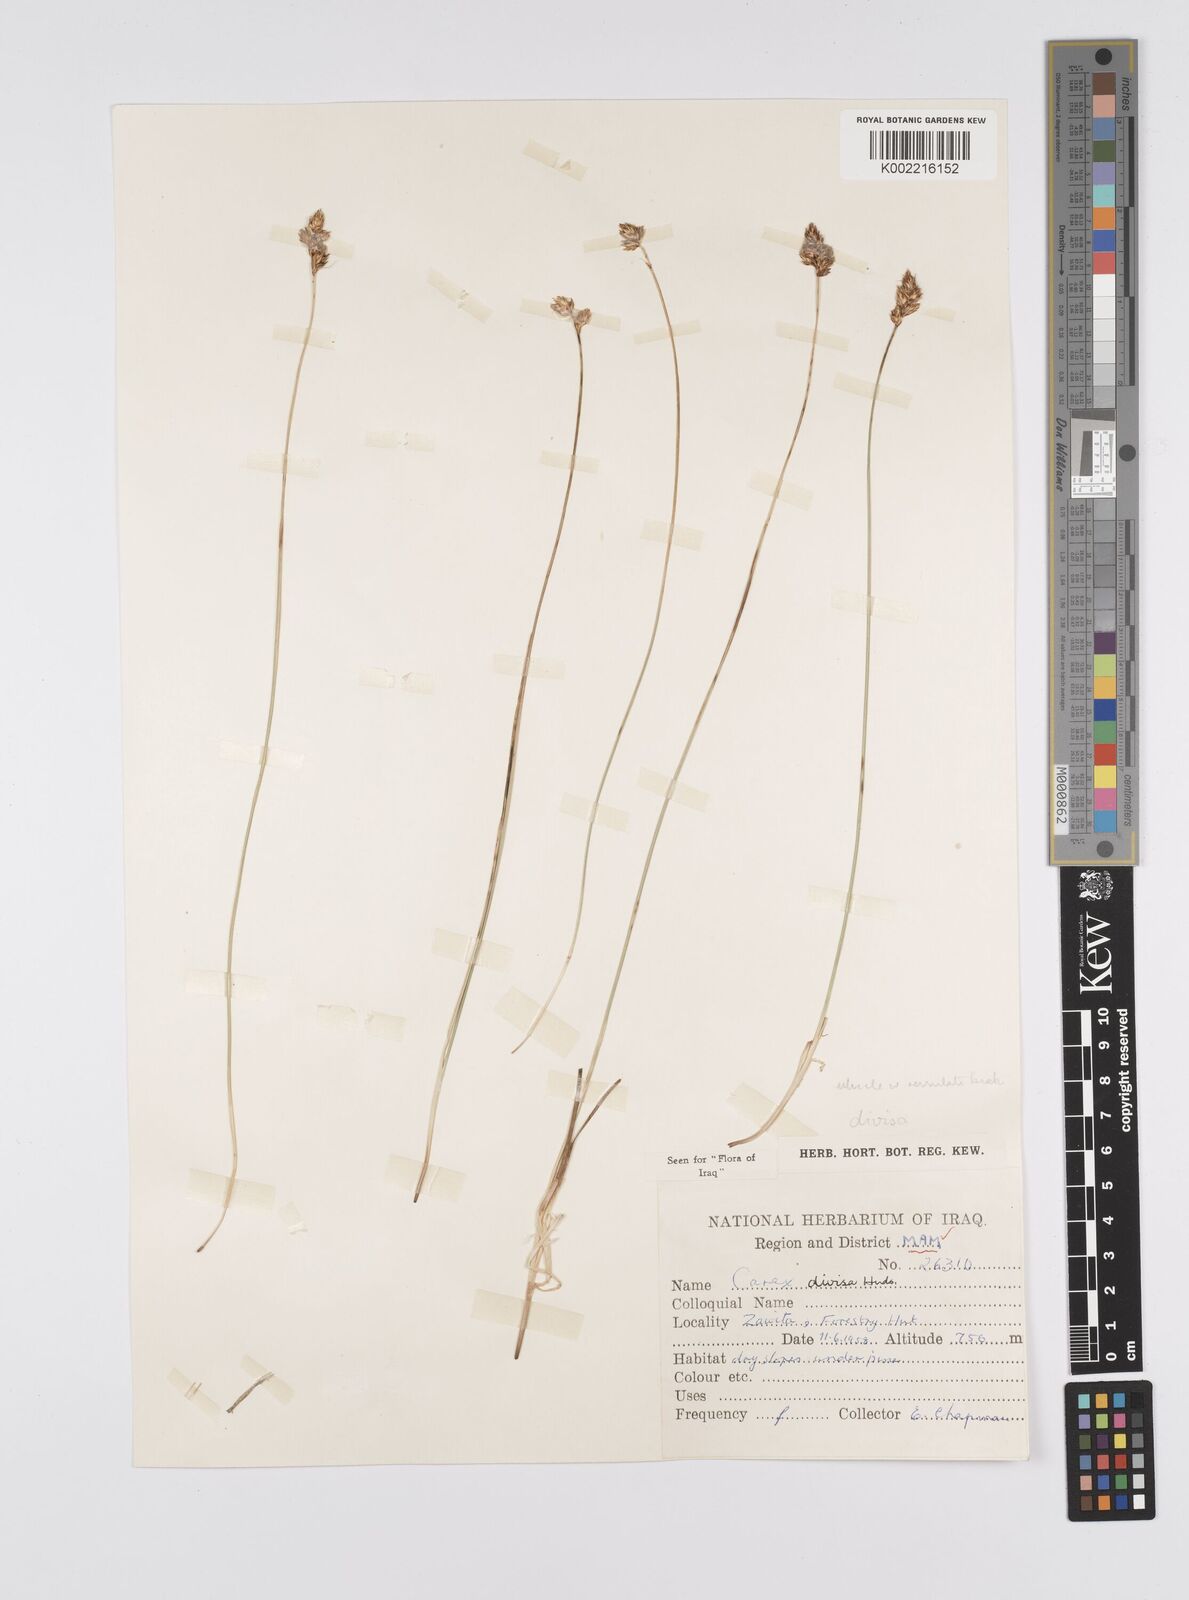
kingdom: Plantae
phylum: Tracheophyta
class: Liliopsida
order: Poales
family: Cyperaceae
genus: Carex
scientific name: Carex divisa
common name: Divided sedge
